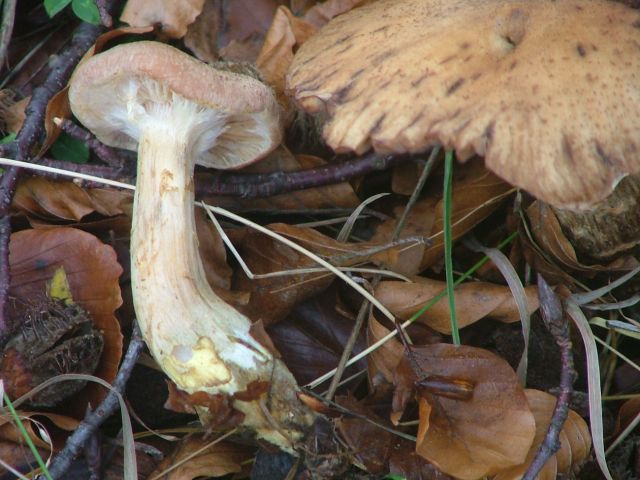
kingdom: Fungi
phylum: Basidiomycota
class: Agaricomycetes
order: Agaricales
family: Physalacriaceae
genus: Armillaria
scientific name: Armillaria lutea
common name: køllestokket honningsvamp
